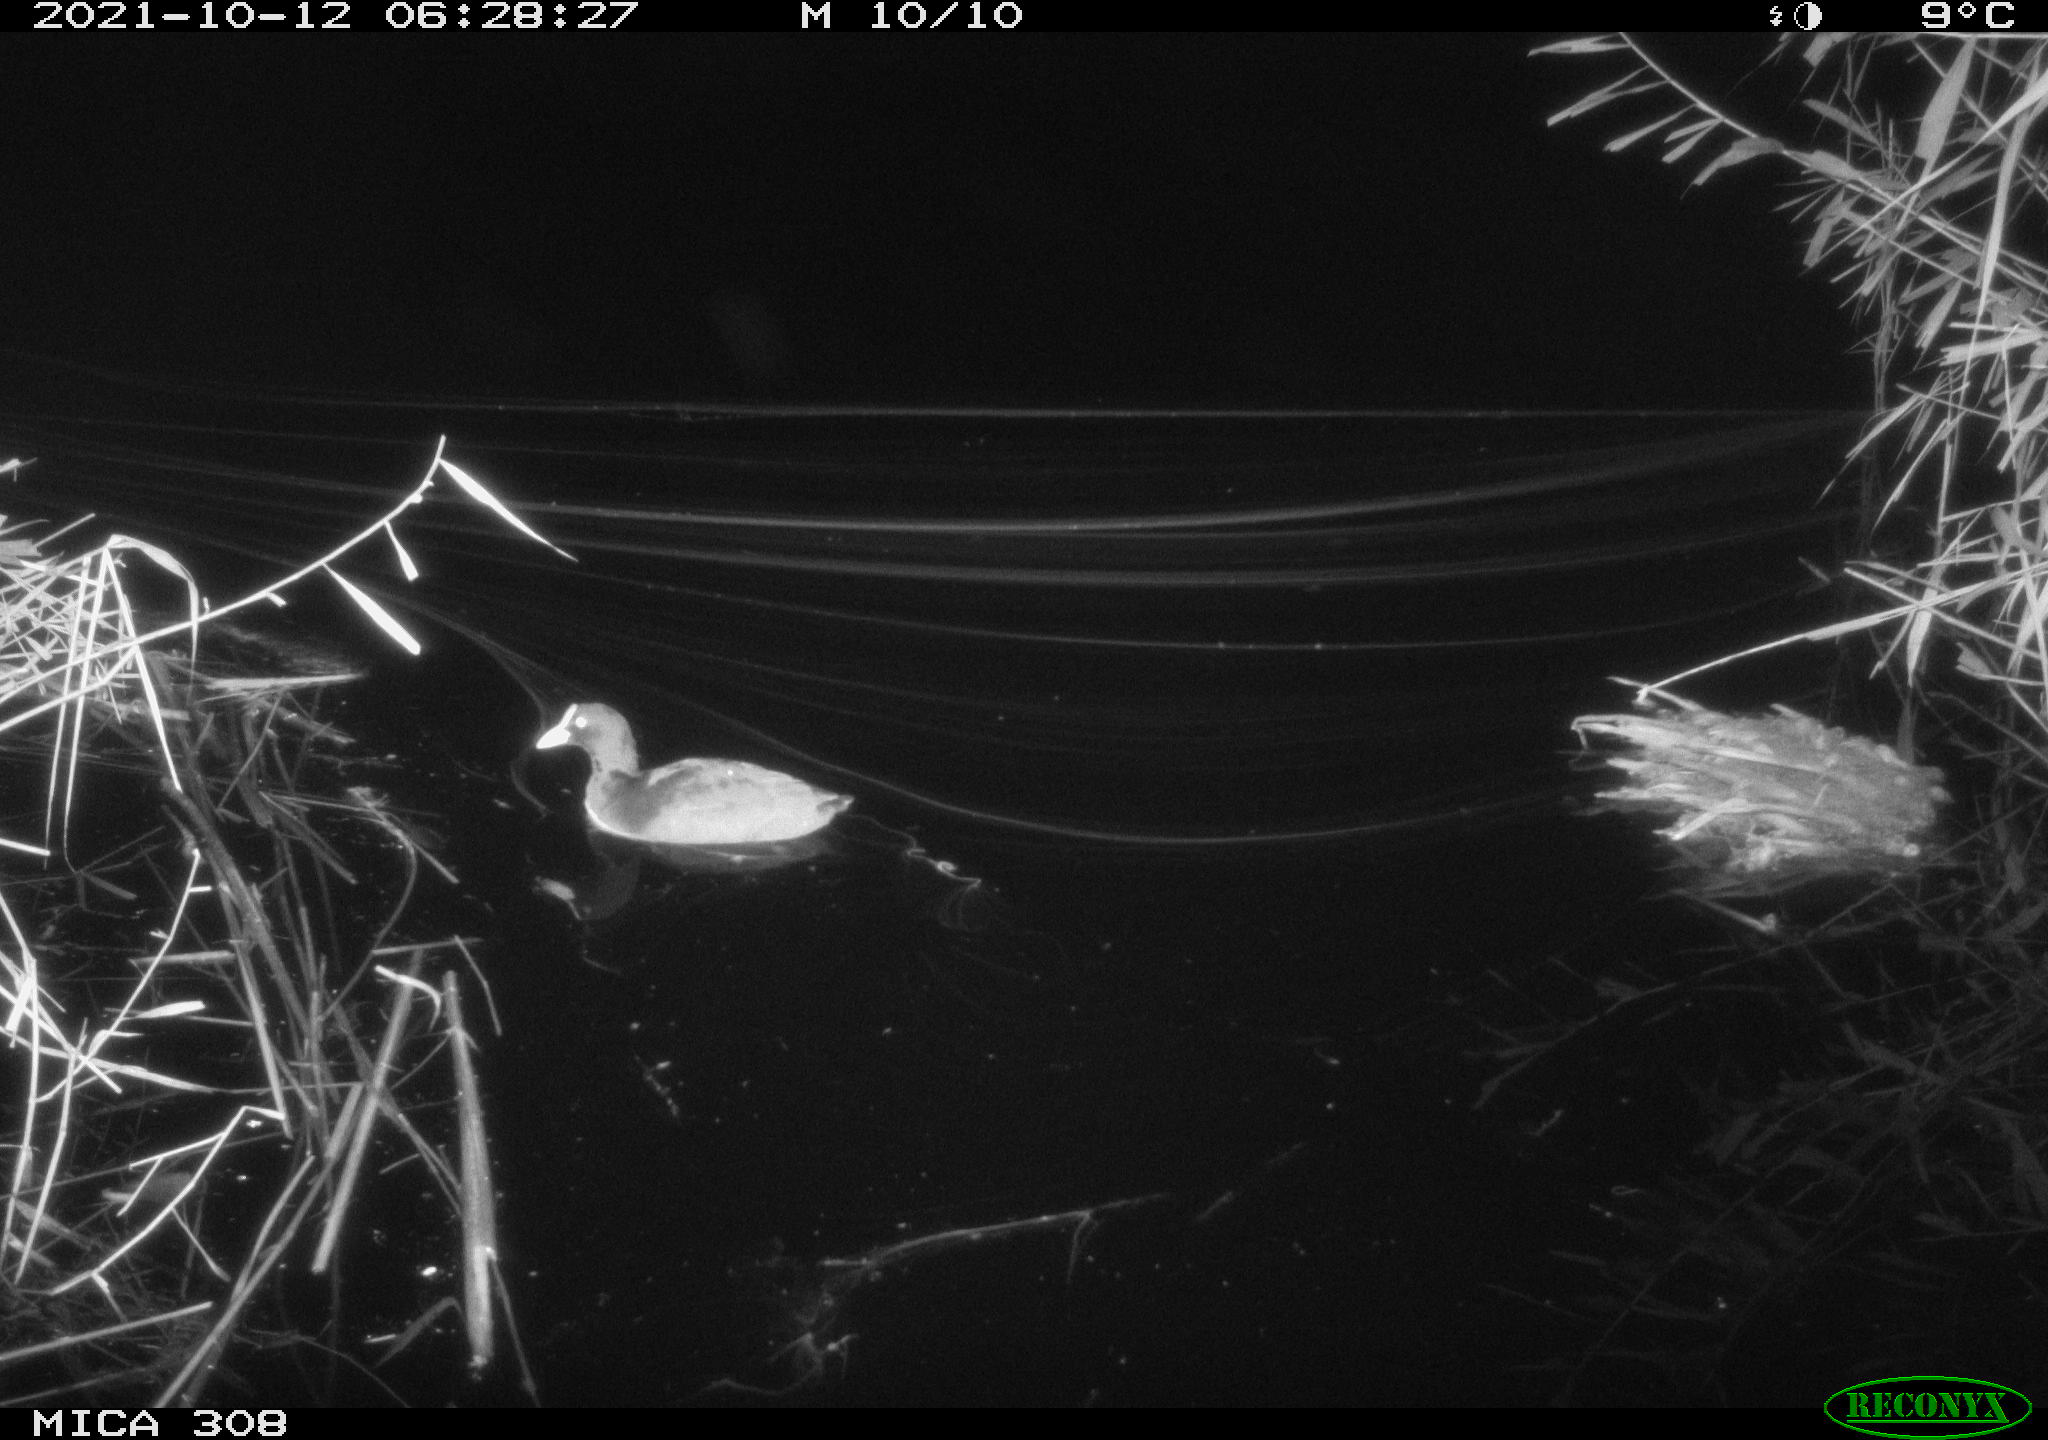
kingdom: Animalia
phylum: Chordata
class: Aves
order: Gruiformes
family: Rallidae
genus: Fulica
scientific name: Fulica atra
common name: Eurasian coot
